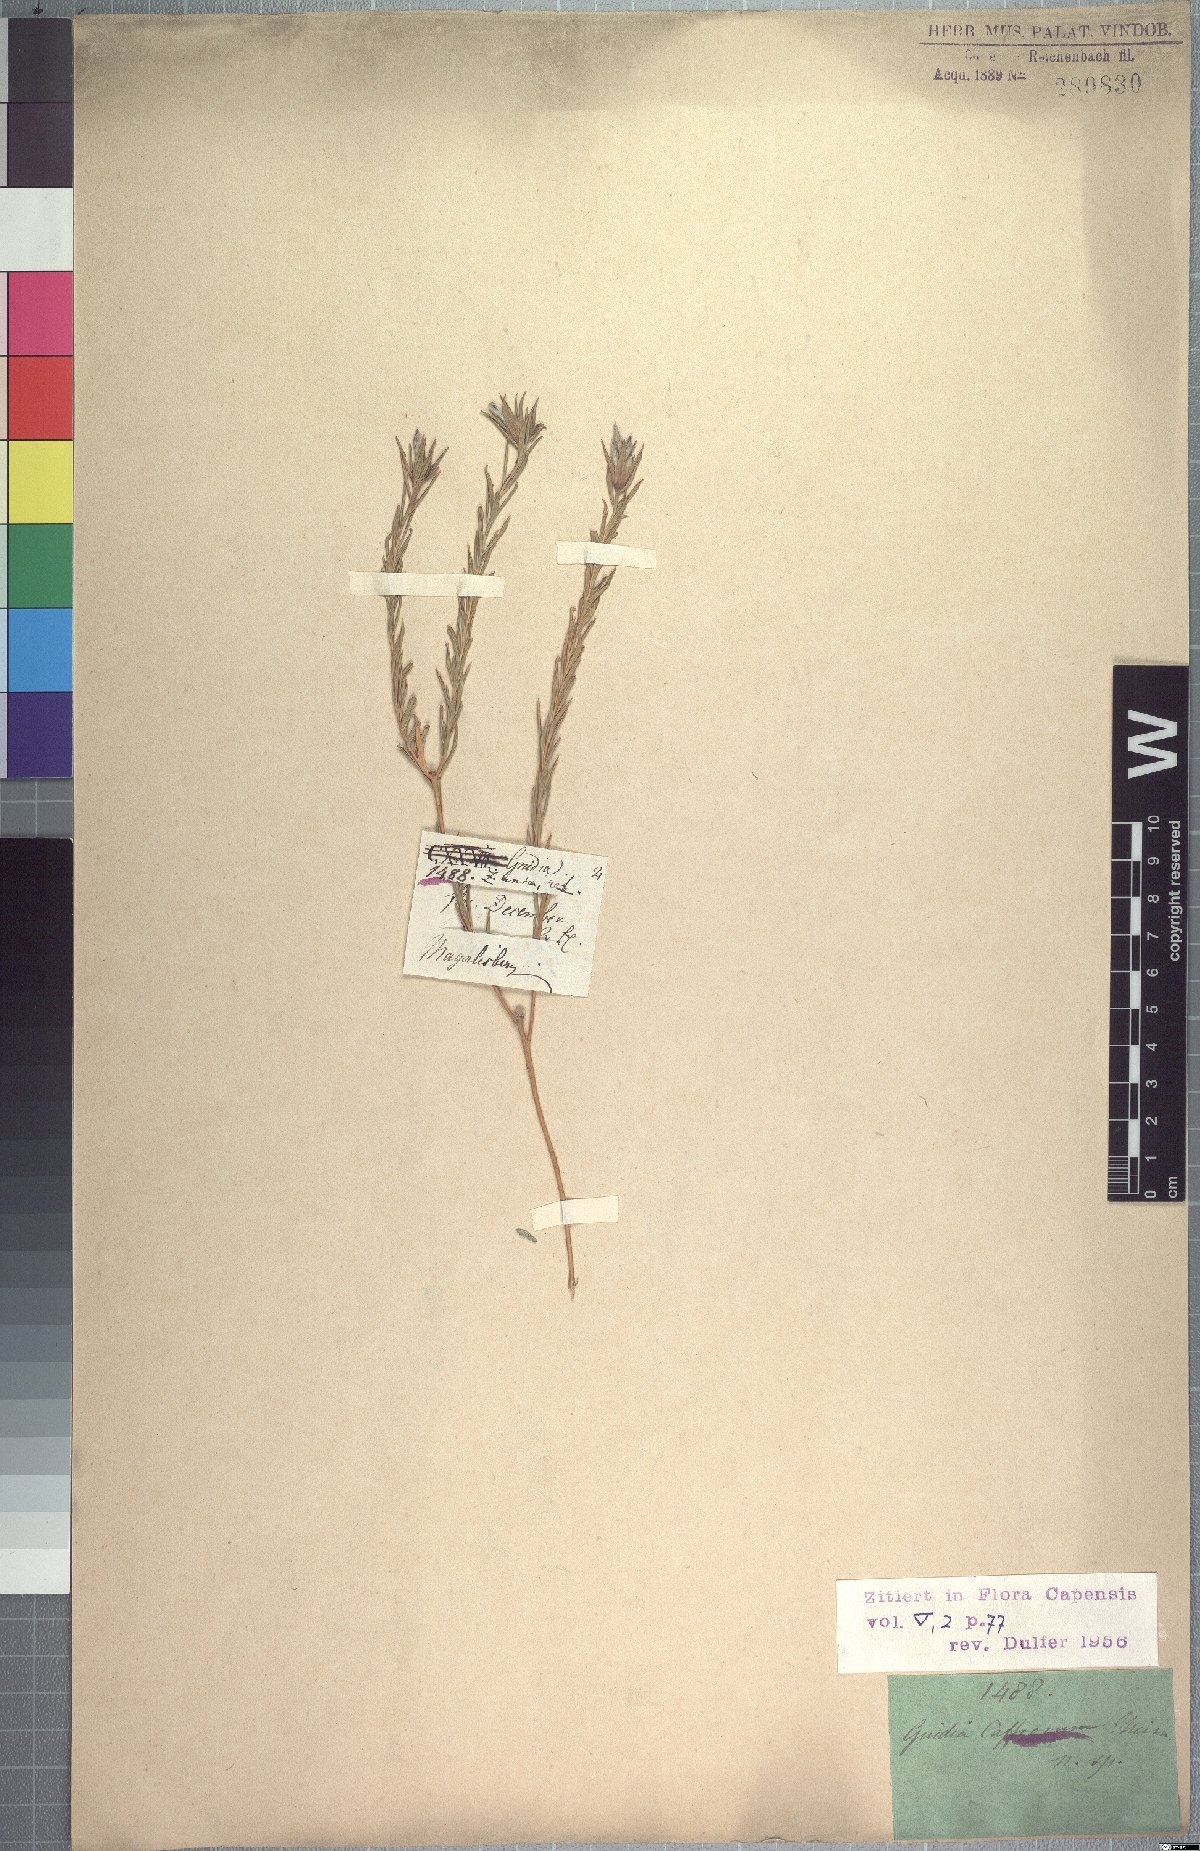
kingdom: Plantae
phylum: Tracheophyta
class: Magnoliopsida
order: Malvales
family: Thymelaeaceae
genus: Gnidia
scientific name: Gnidia caffra
